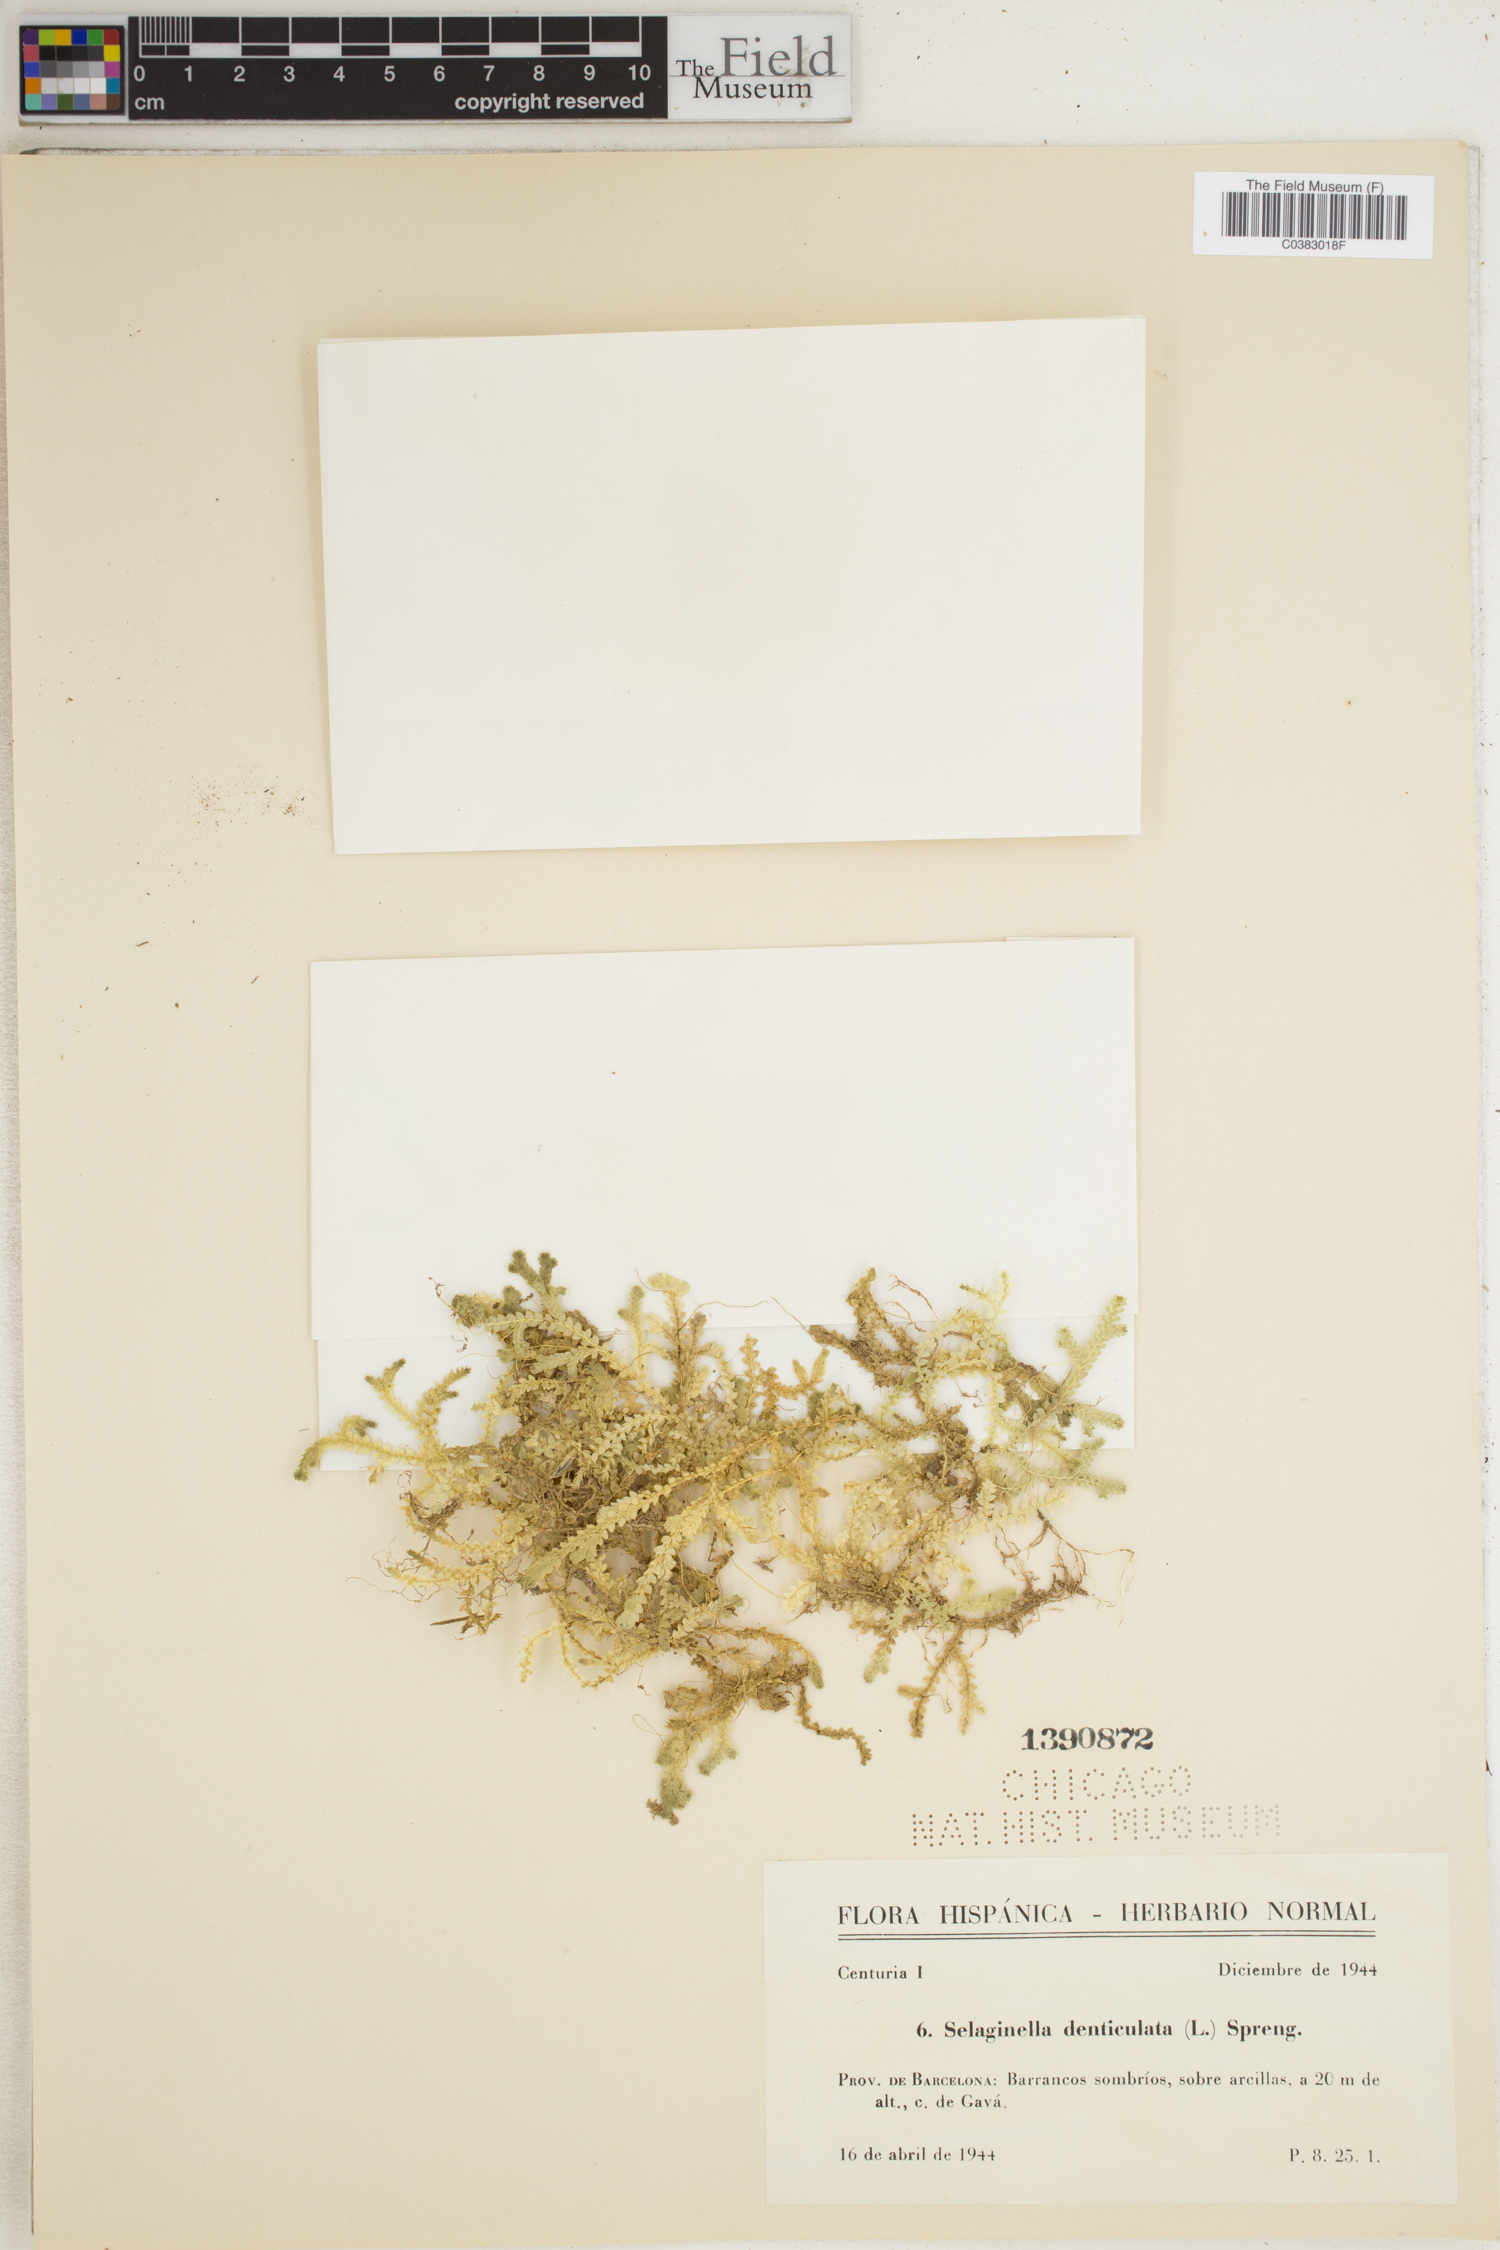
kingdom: Plantae
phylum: Tracheophyta
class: Lycopodiopsida
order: Selaginellales
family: Selaginellaceae
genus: Selaginella
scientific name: Selaginella denticulata
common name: Toothed-leaved clubmoss
